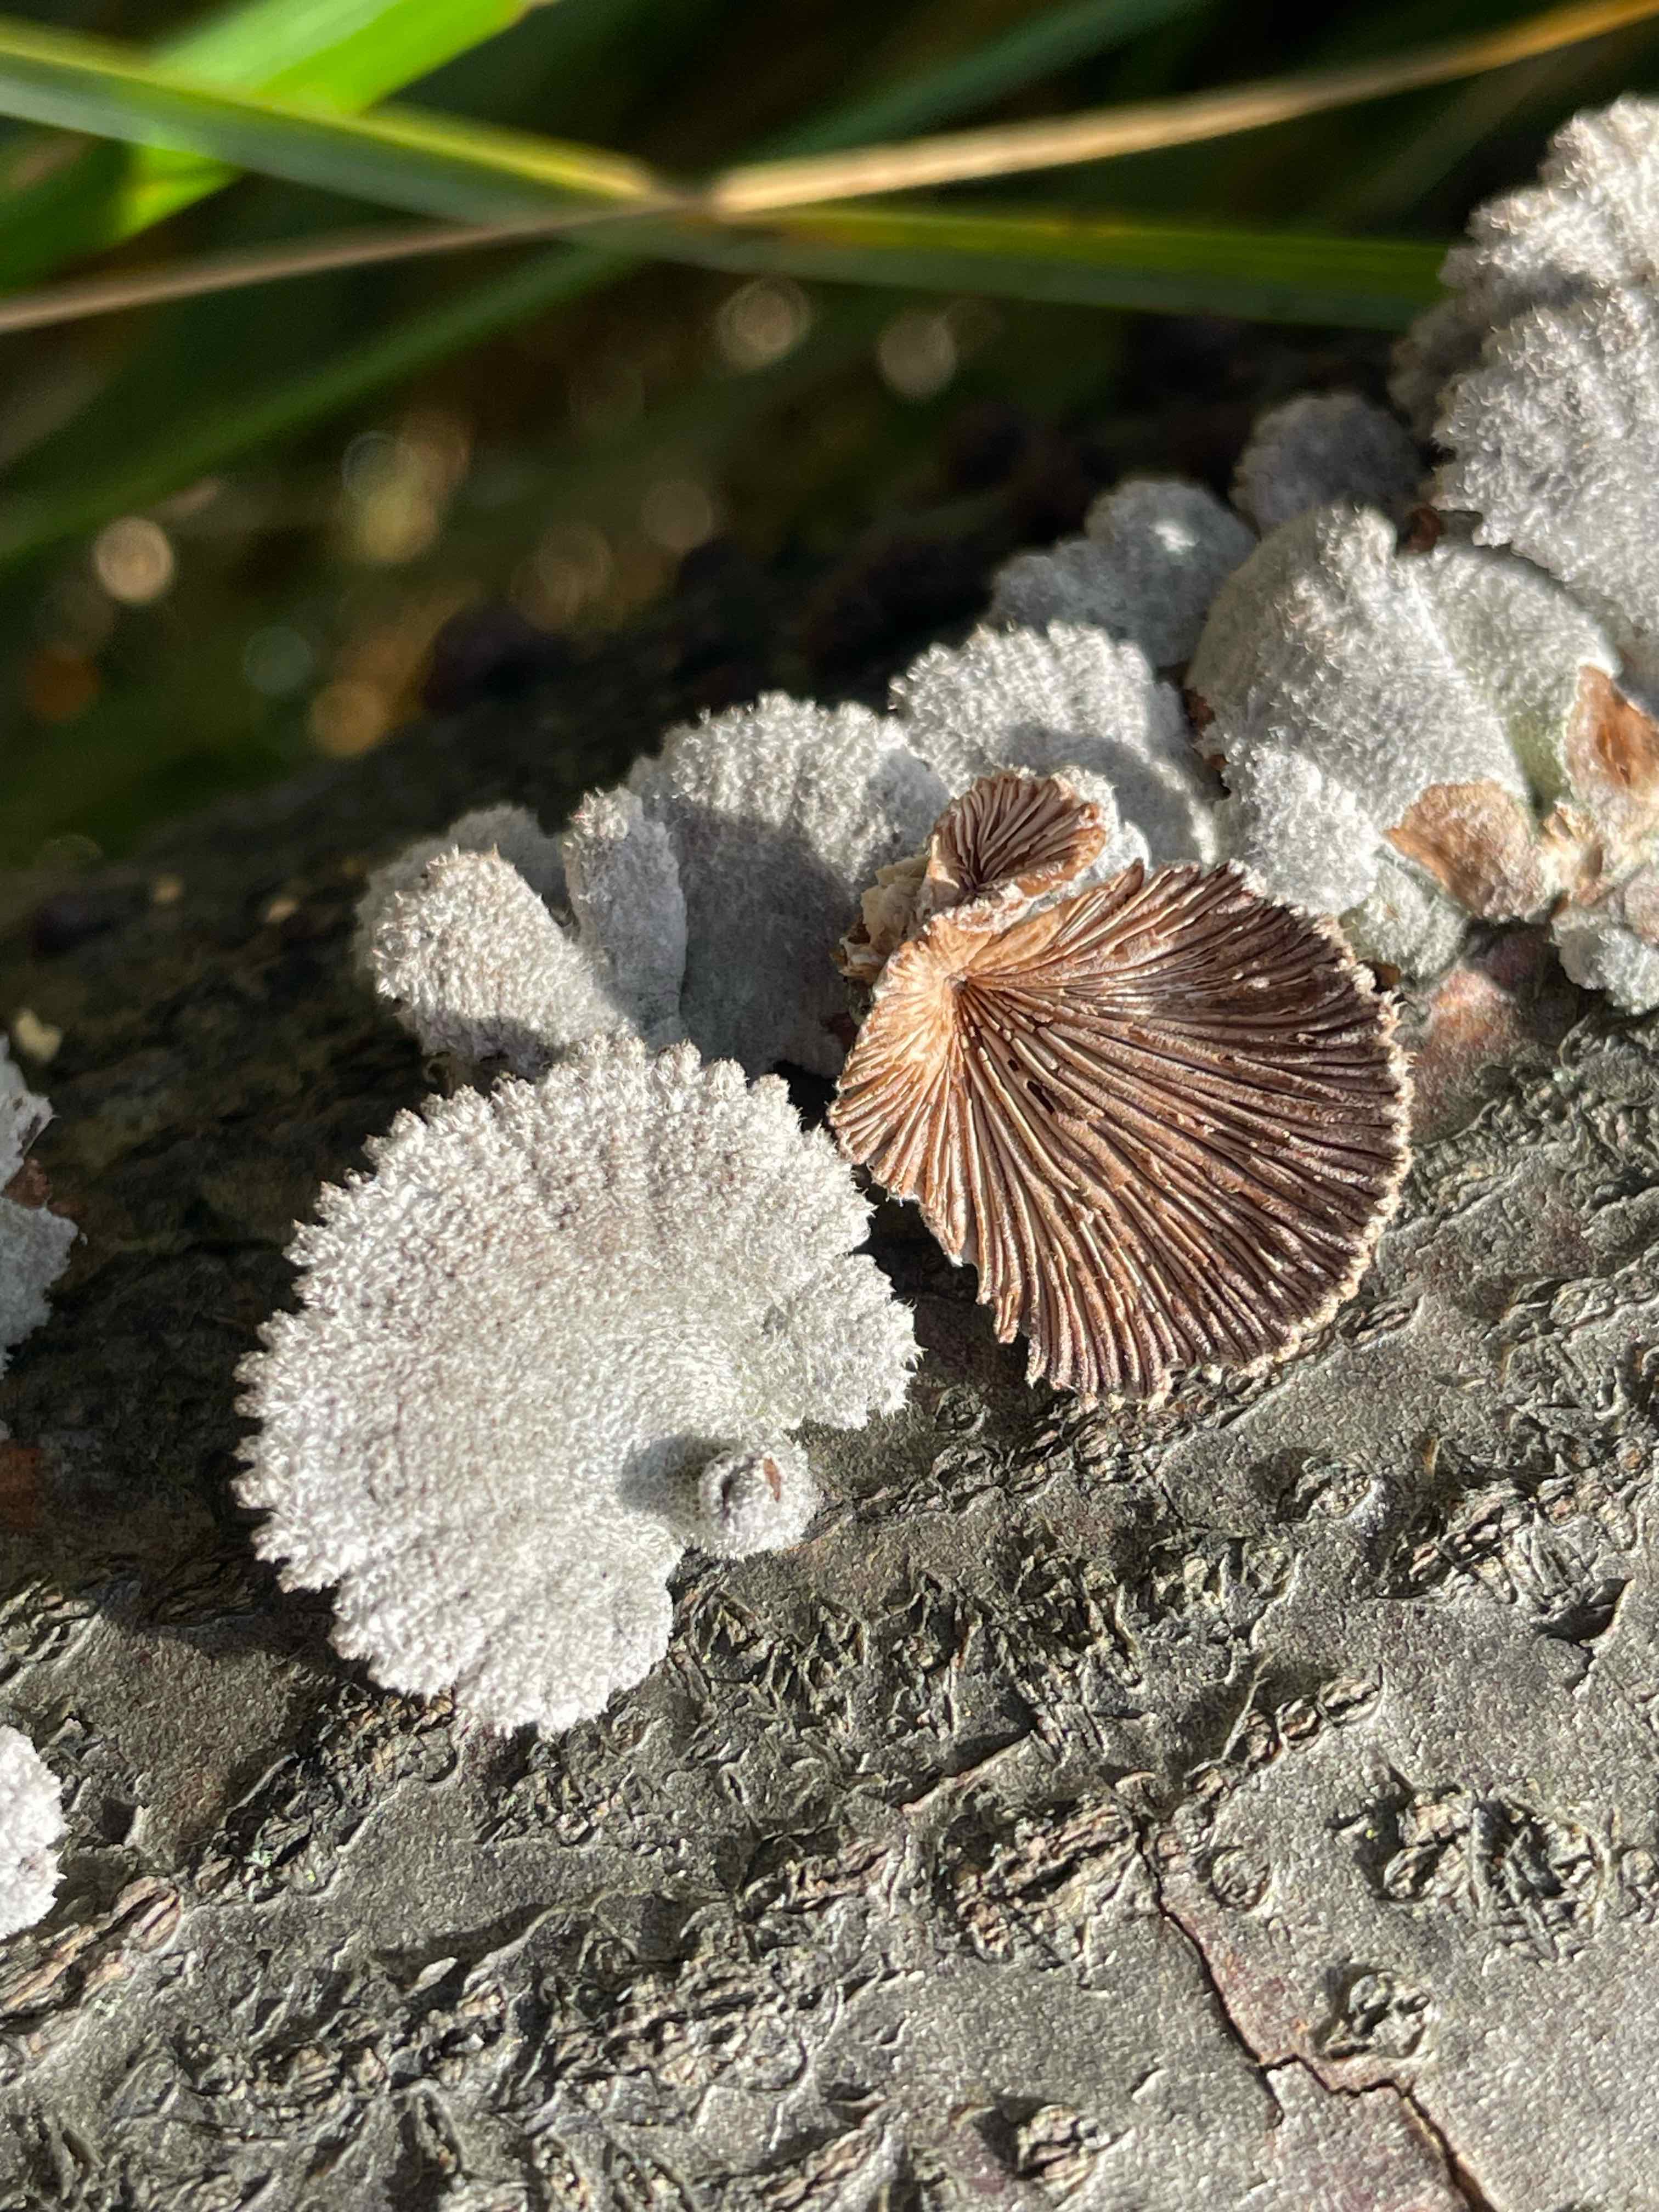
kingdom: Fungi
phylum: Basidiomycota
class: Agaricomycetes
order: Agaricales
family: Schizophyllaceae
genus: Schizophyllum
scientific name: Schizophyllum commune
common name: kløvblad
